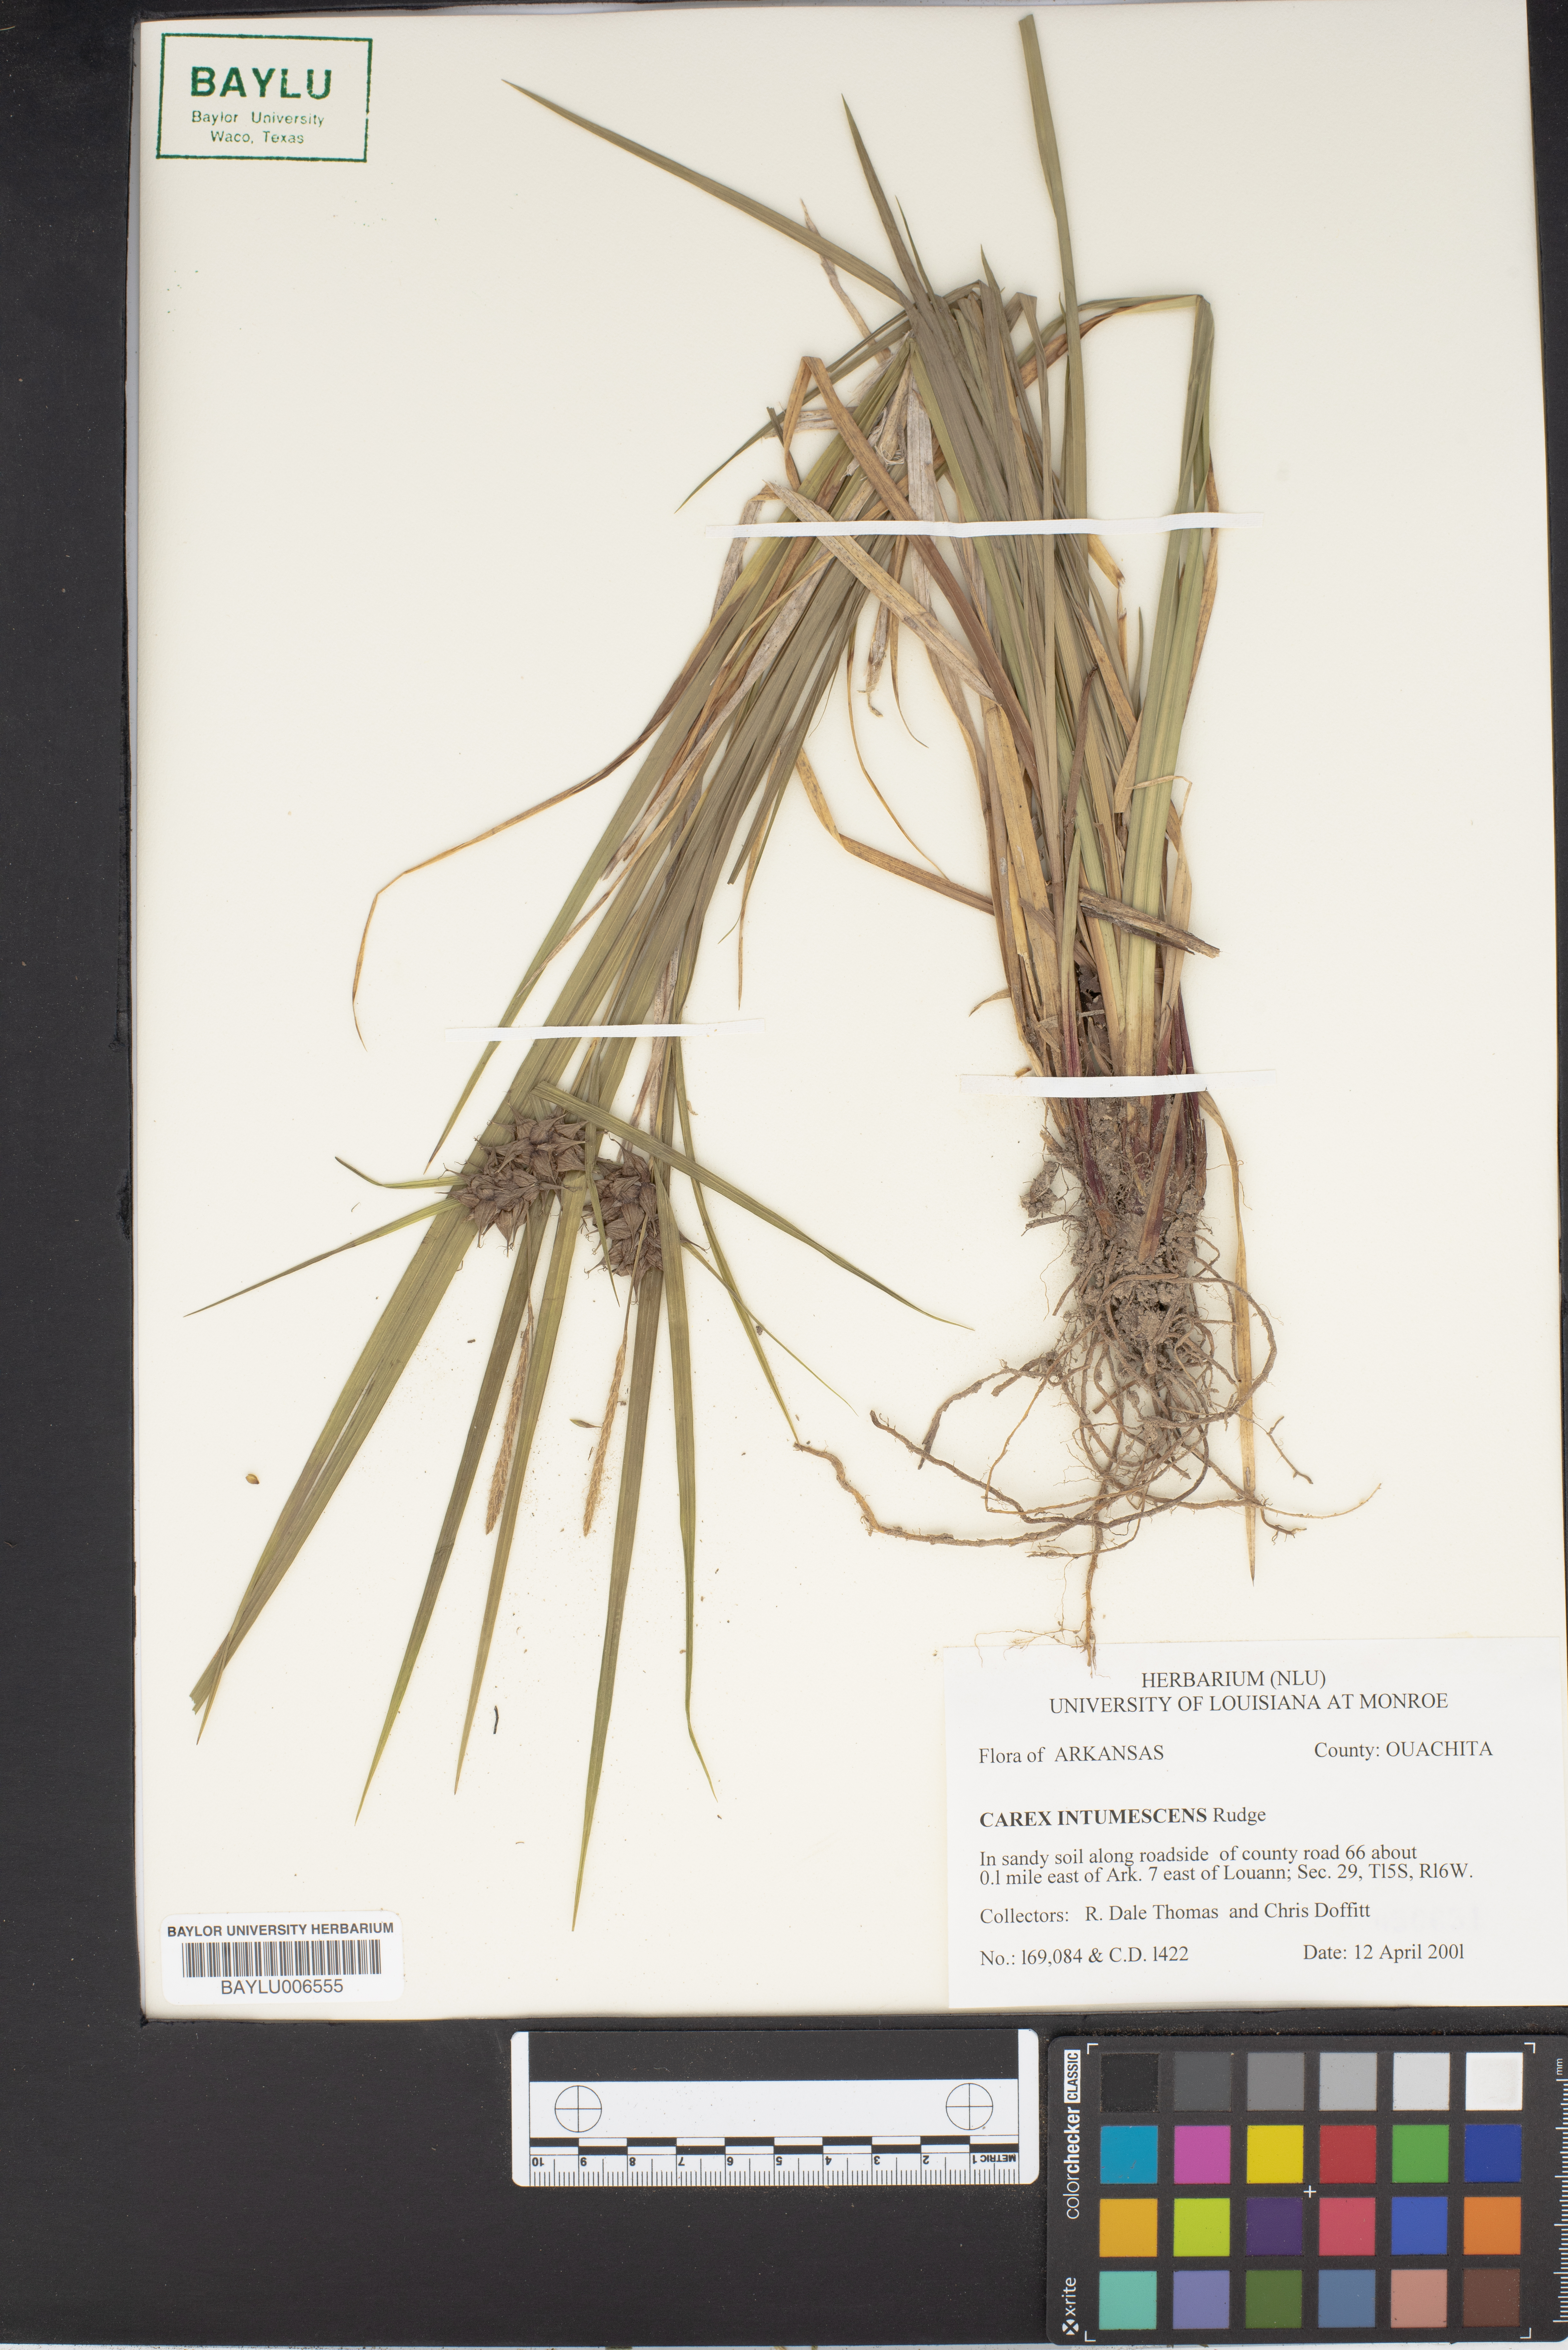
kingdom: Plantae
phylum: Tracheophyta
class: Liliopsida
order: Poales
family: Cyperaceae
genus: Carex
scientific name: Carex intumescens
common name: Greater bladder sedge
